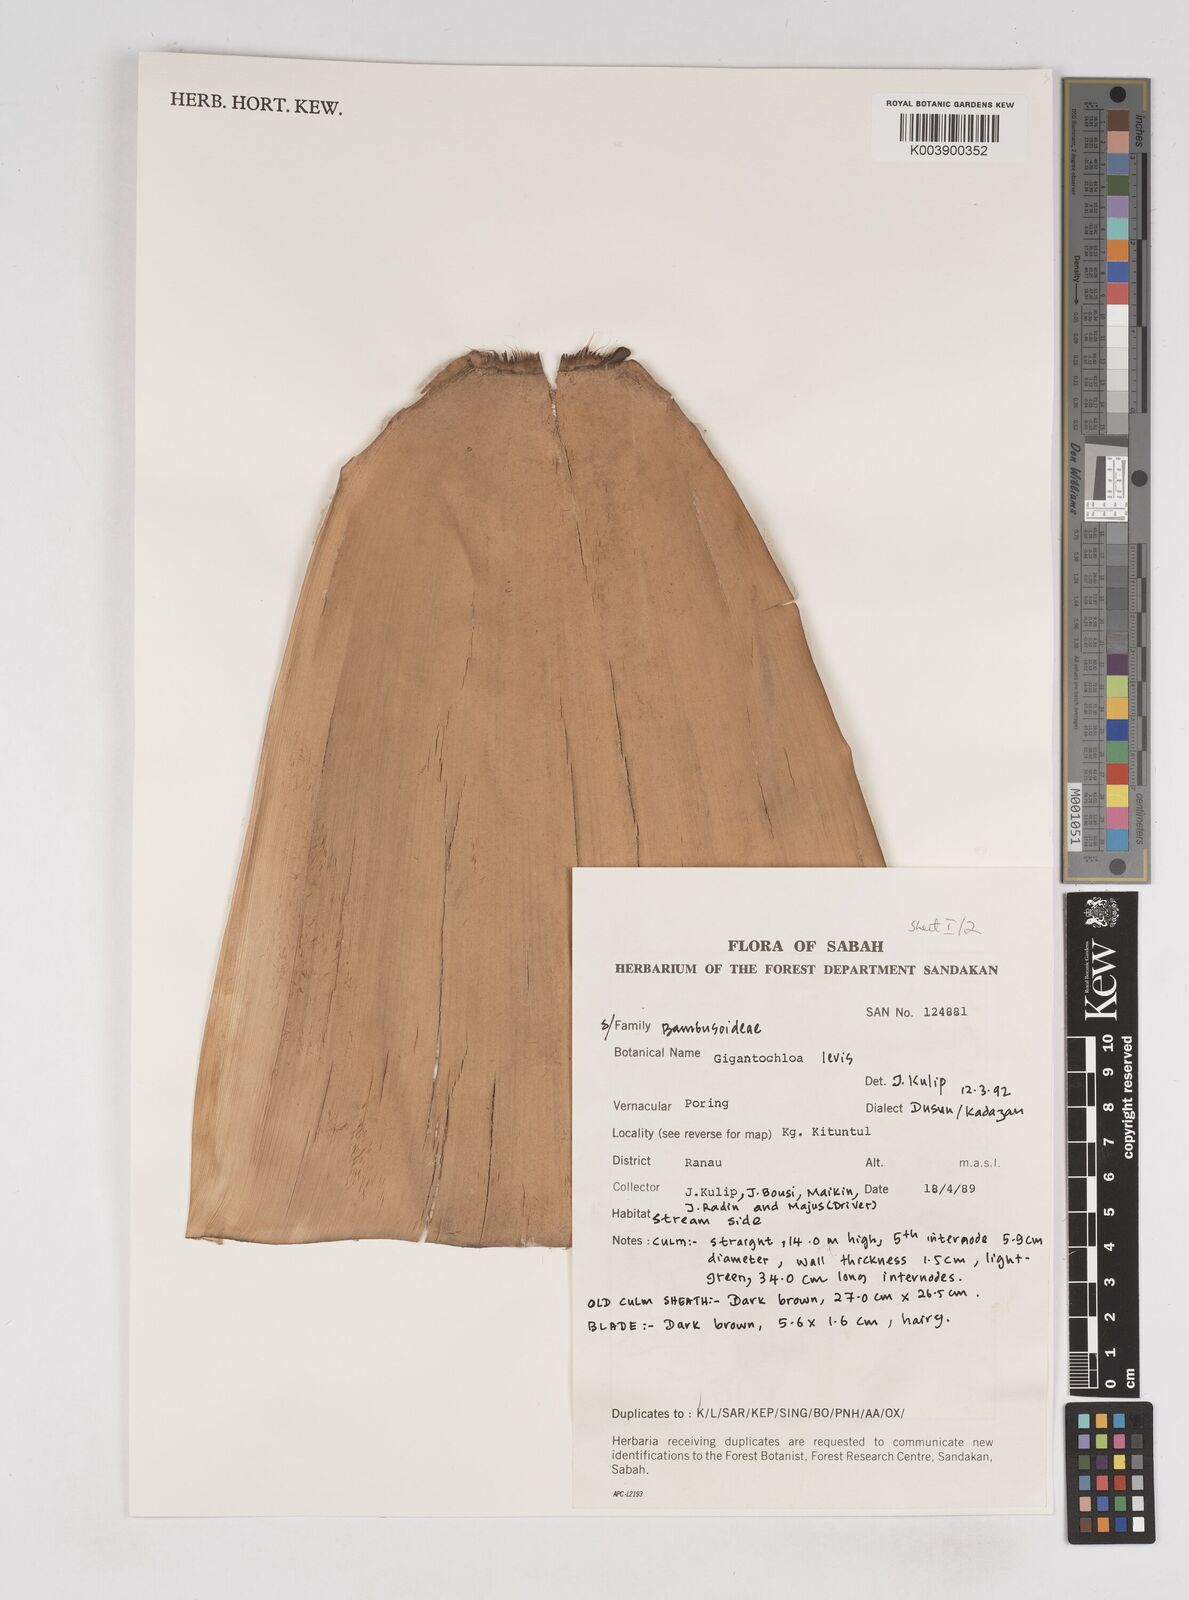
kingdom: Plantae
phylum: Tracheophyta
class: Liliopsida
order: Poales
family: Poaceae
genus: Gigantochloa
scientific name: Gigantochloa levis
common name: Smooth-shoot gigantochloa
